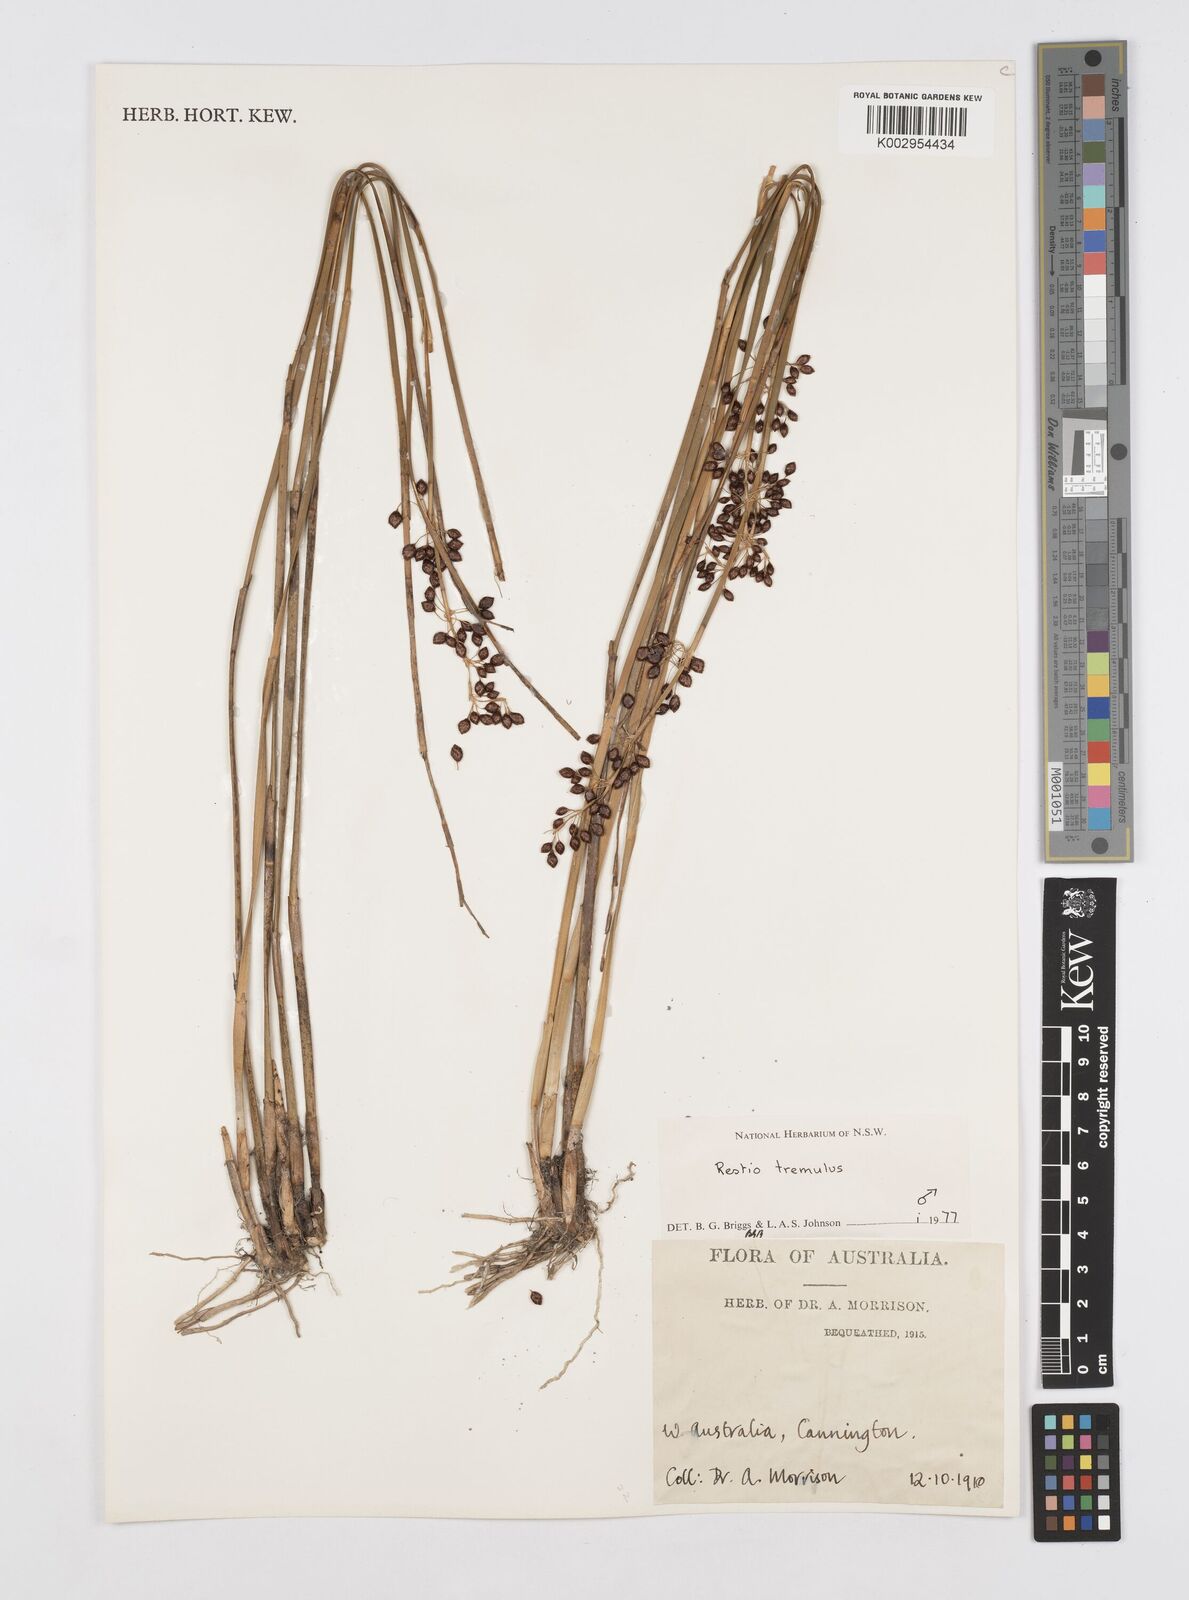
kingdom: Plantae
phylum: Tracheophyta
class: Liliopsida
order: Poales
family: Restionaceae
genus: Tremulina
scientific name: Tremulina tremula
